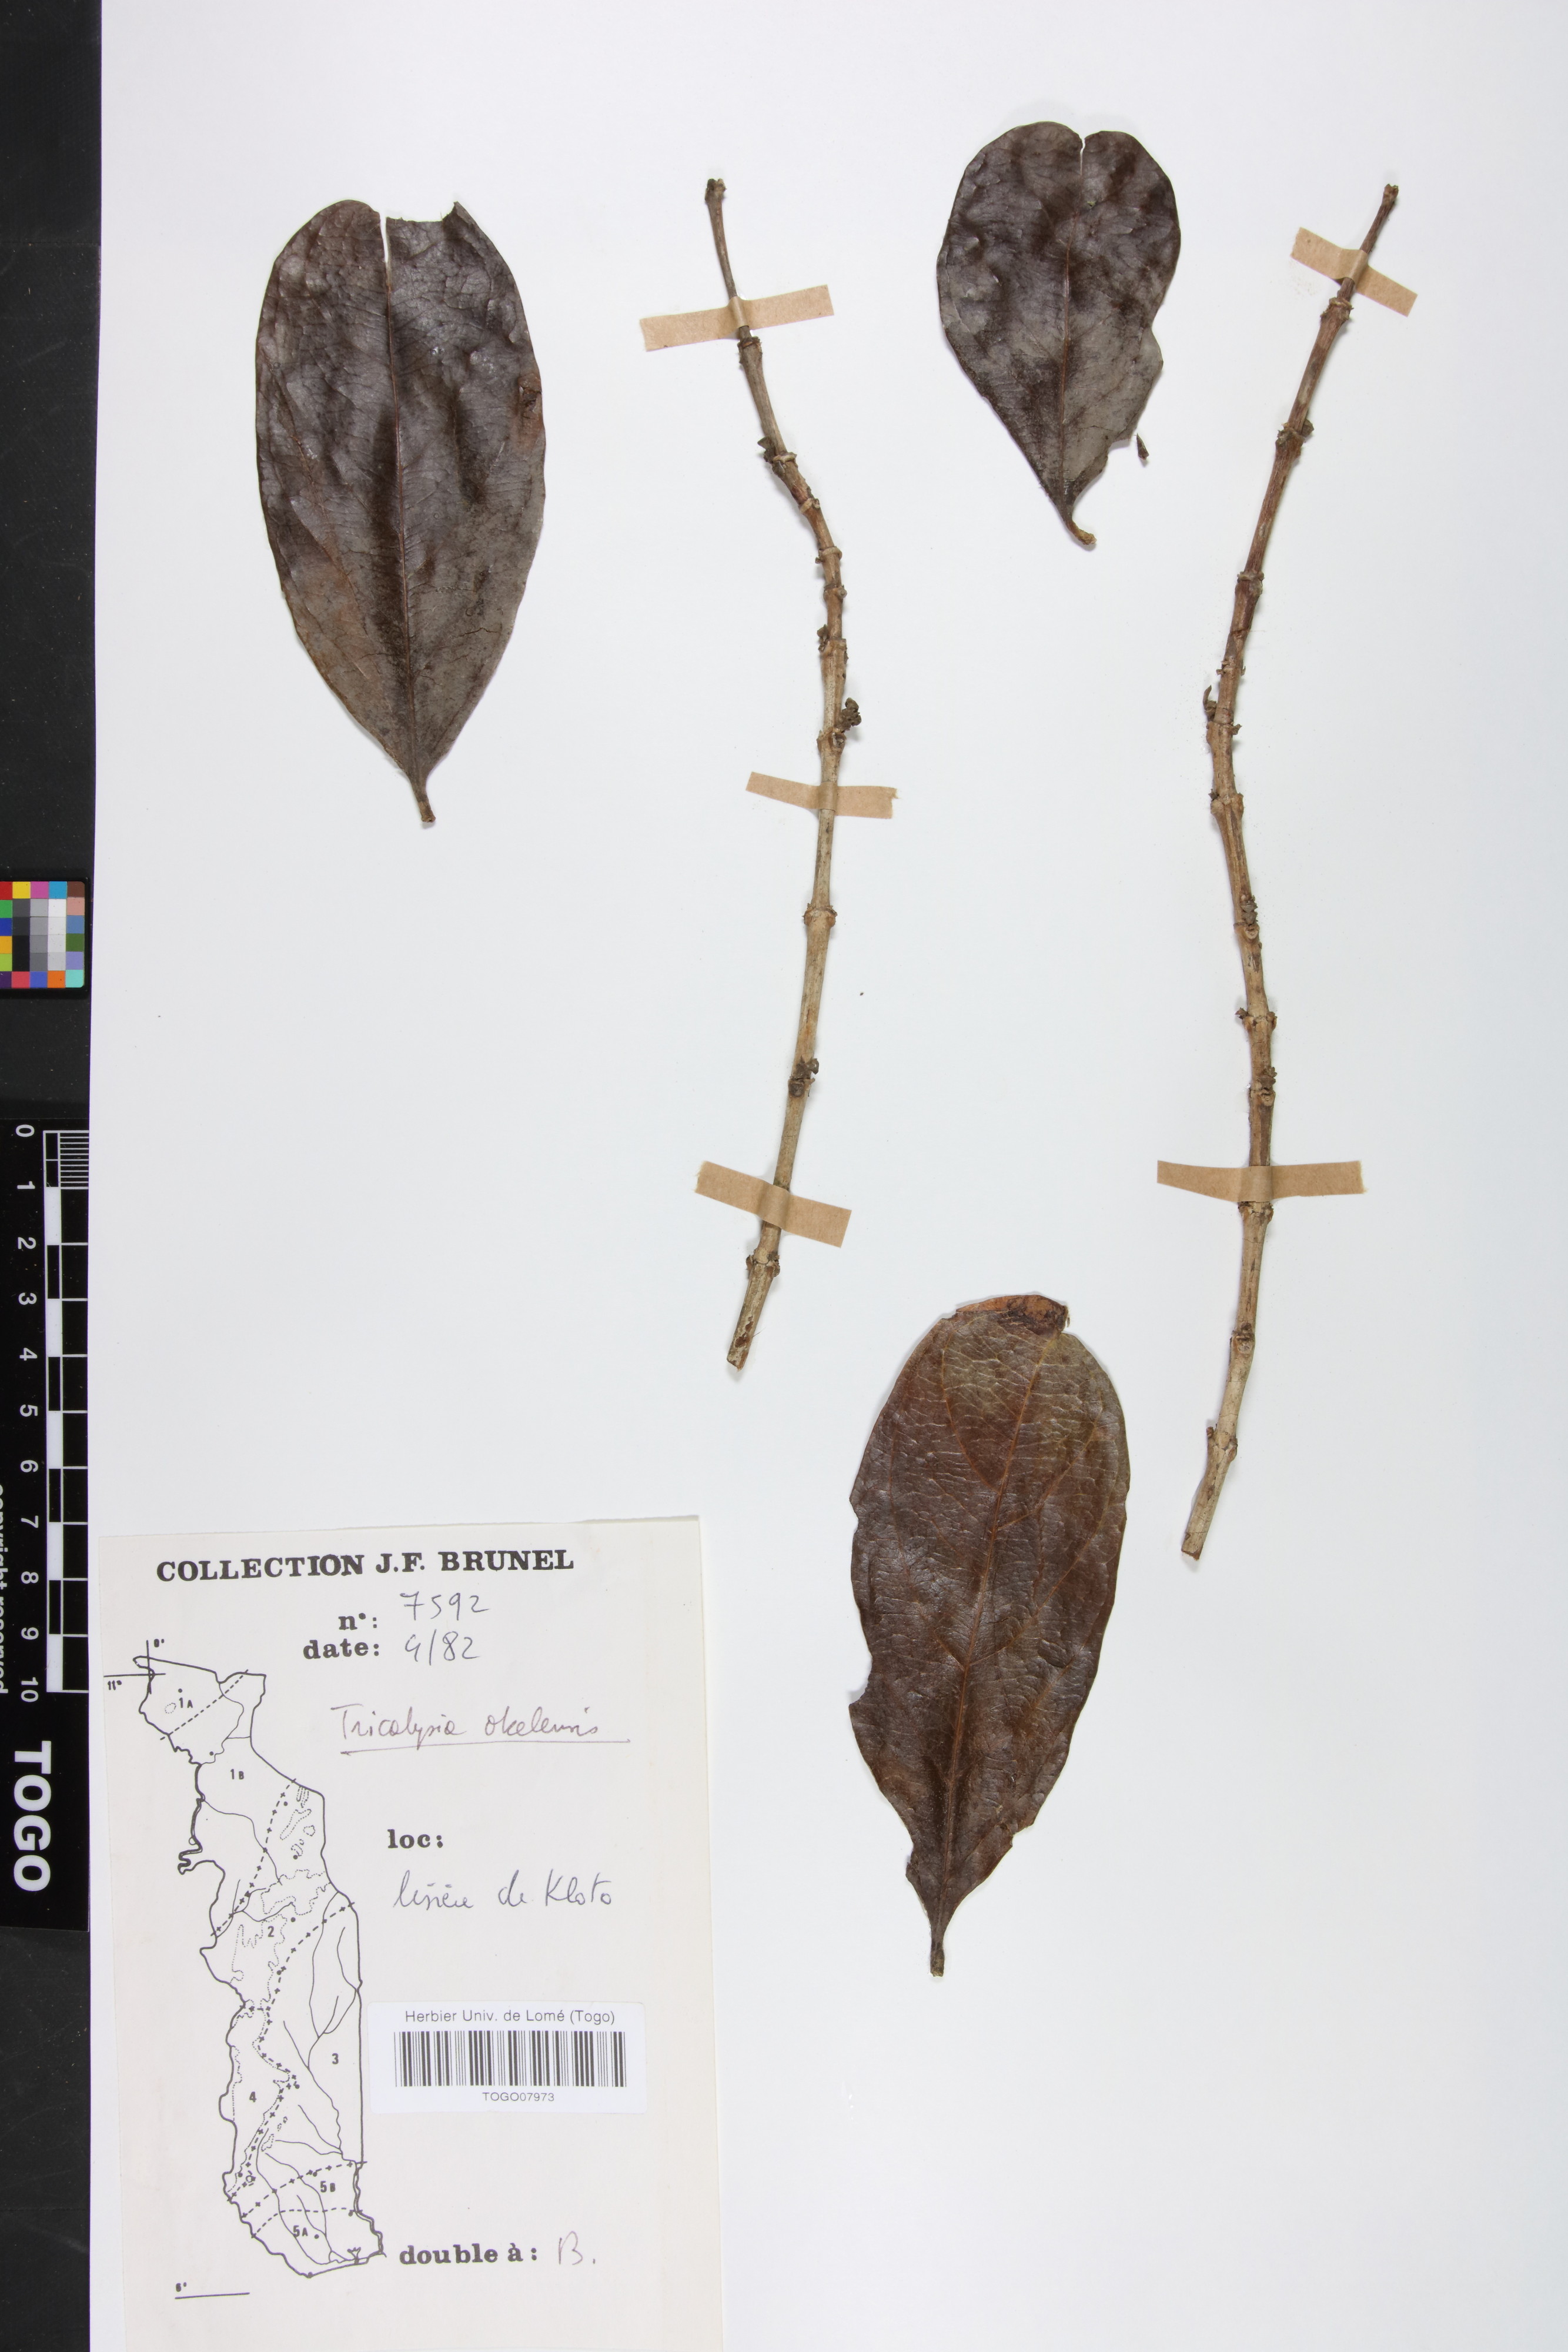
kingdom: Plantae
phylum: Tracheophyta
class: Magnoliopsida
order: Gentianales
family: Rubiaceae
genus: Tricalysia
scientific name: Tricalysia okelensis
